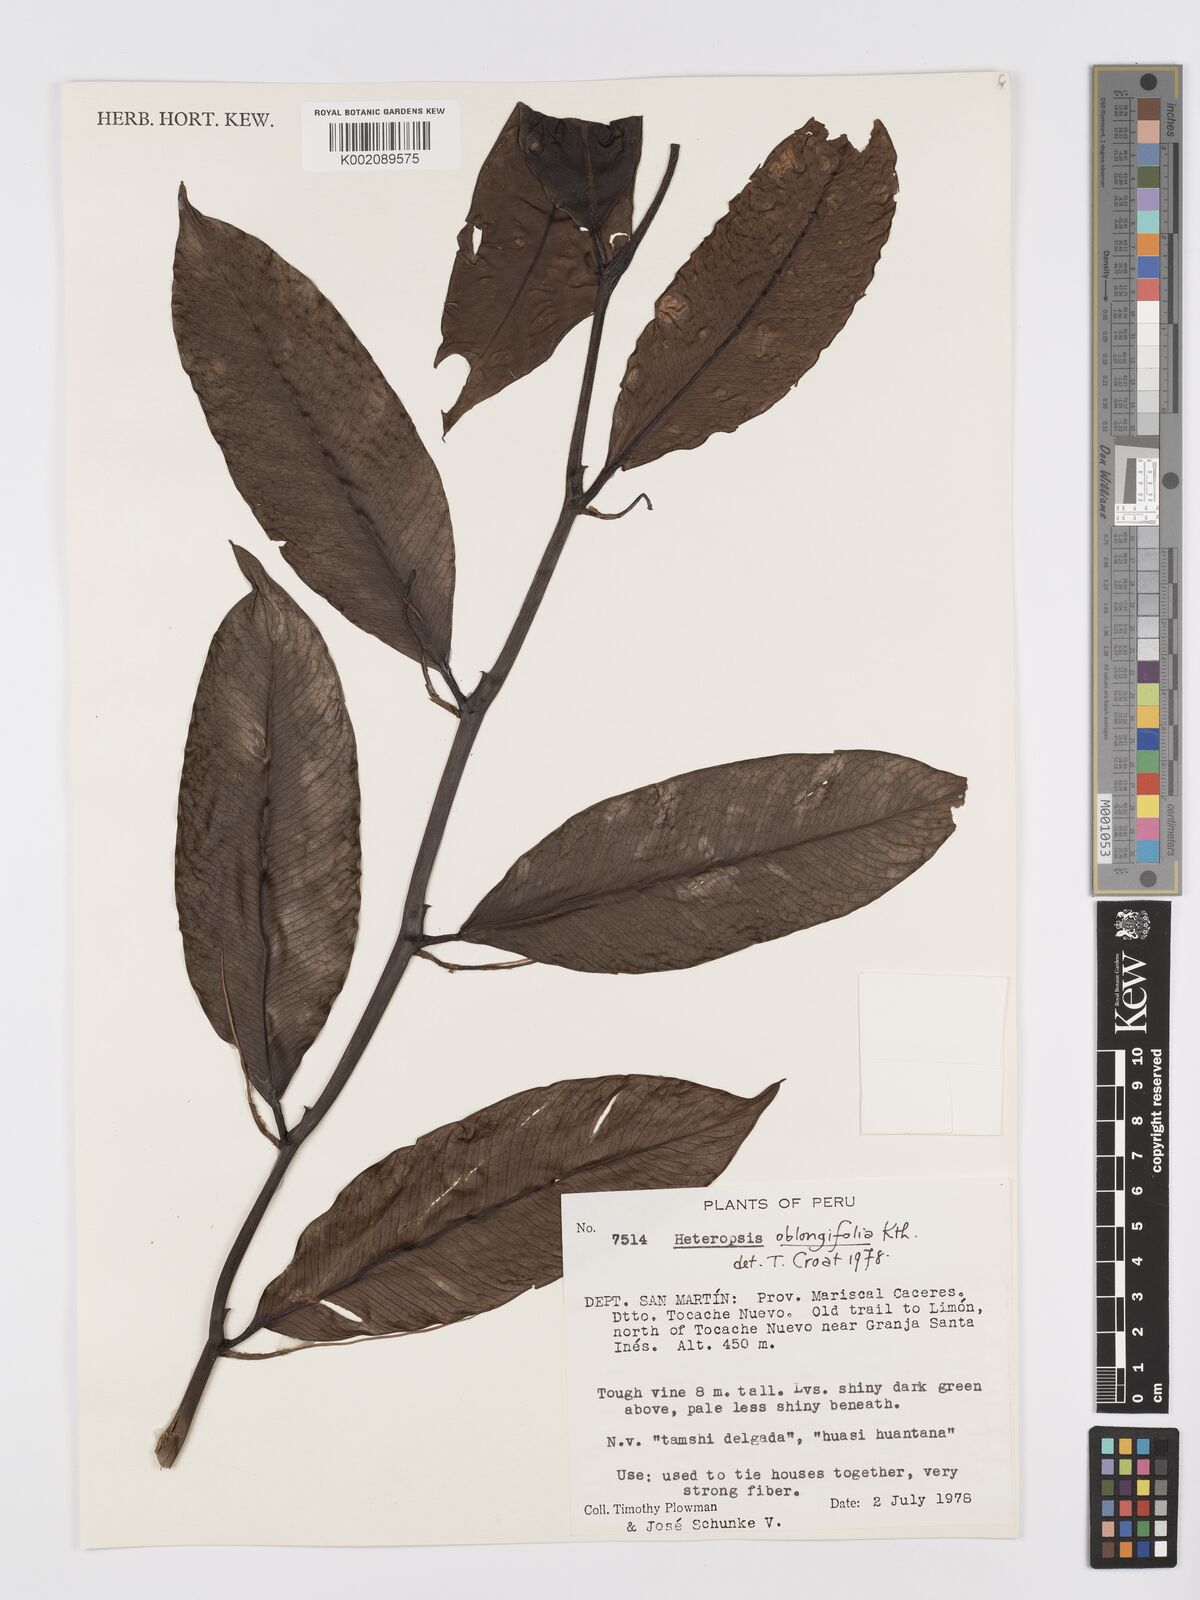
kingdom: Plantae
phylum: Tracheophyta
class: Liliopsida
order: Alismatales
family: Araceae
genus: Heteropsis
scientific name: Heteropsis oblongifolia
